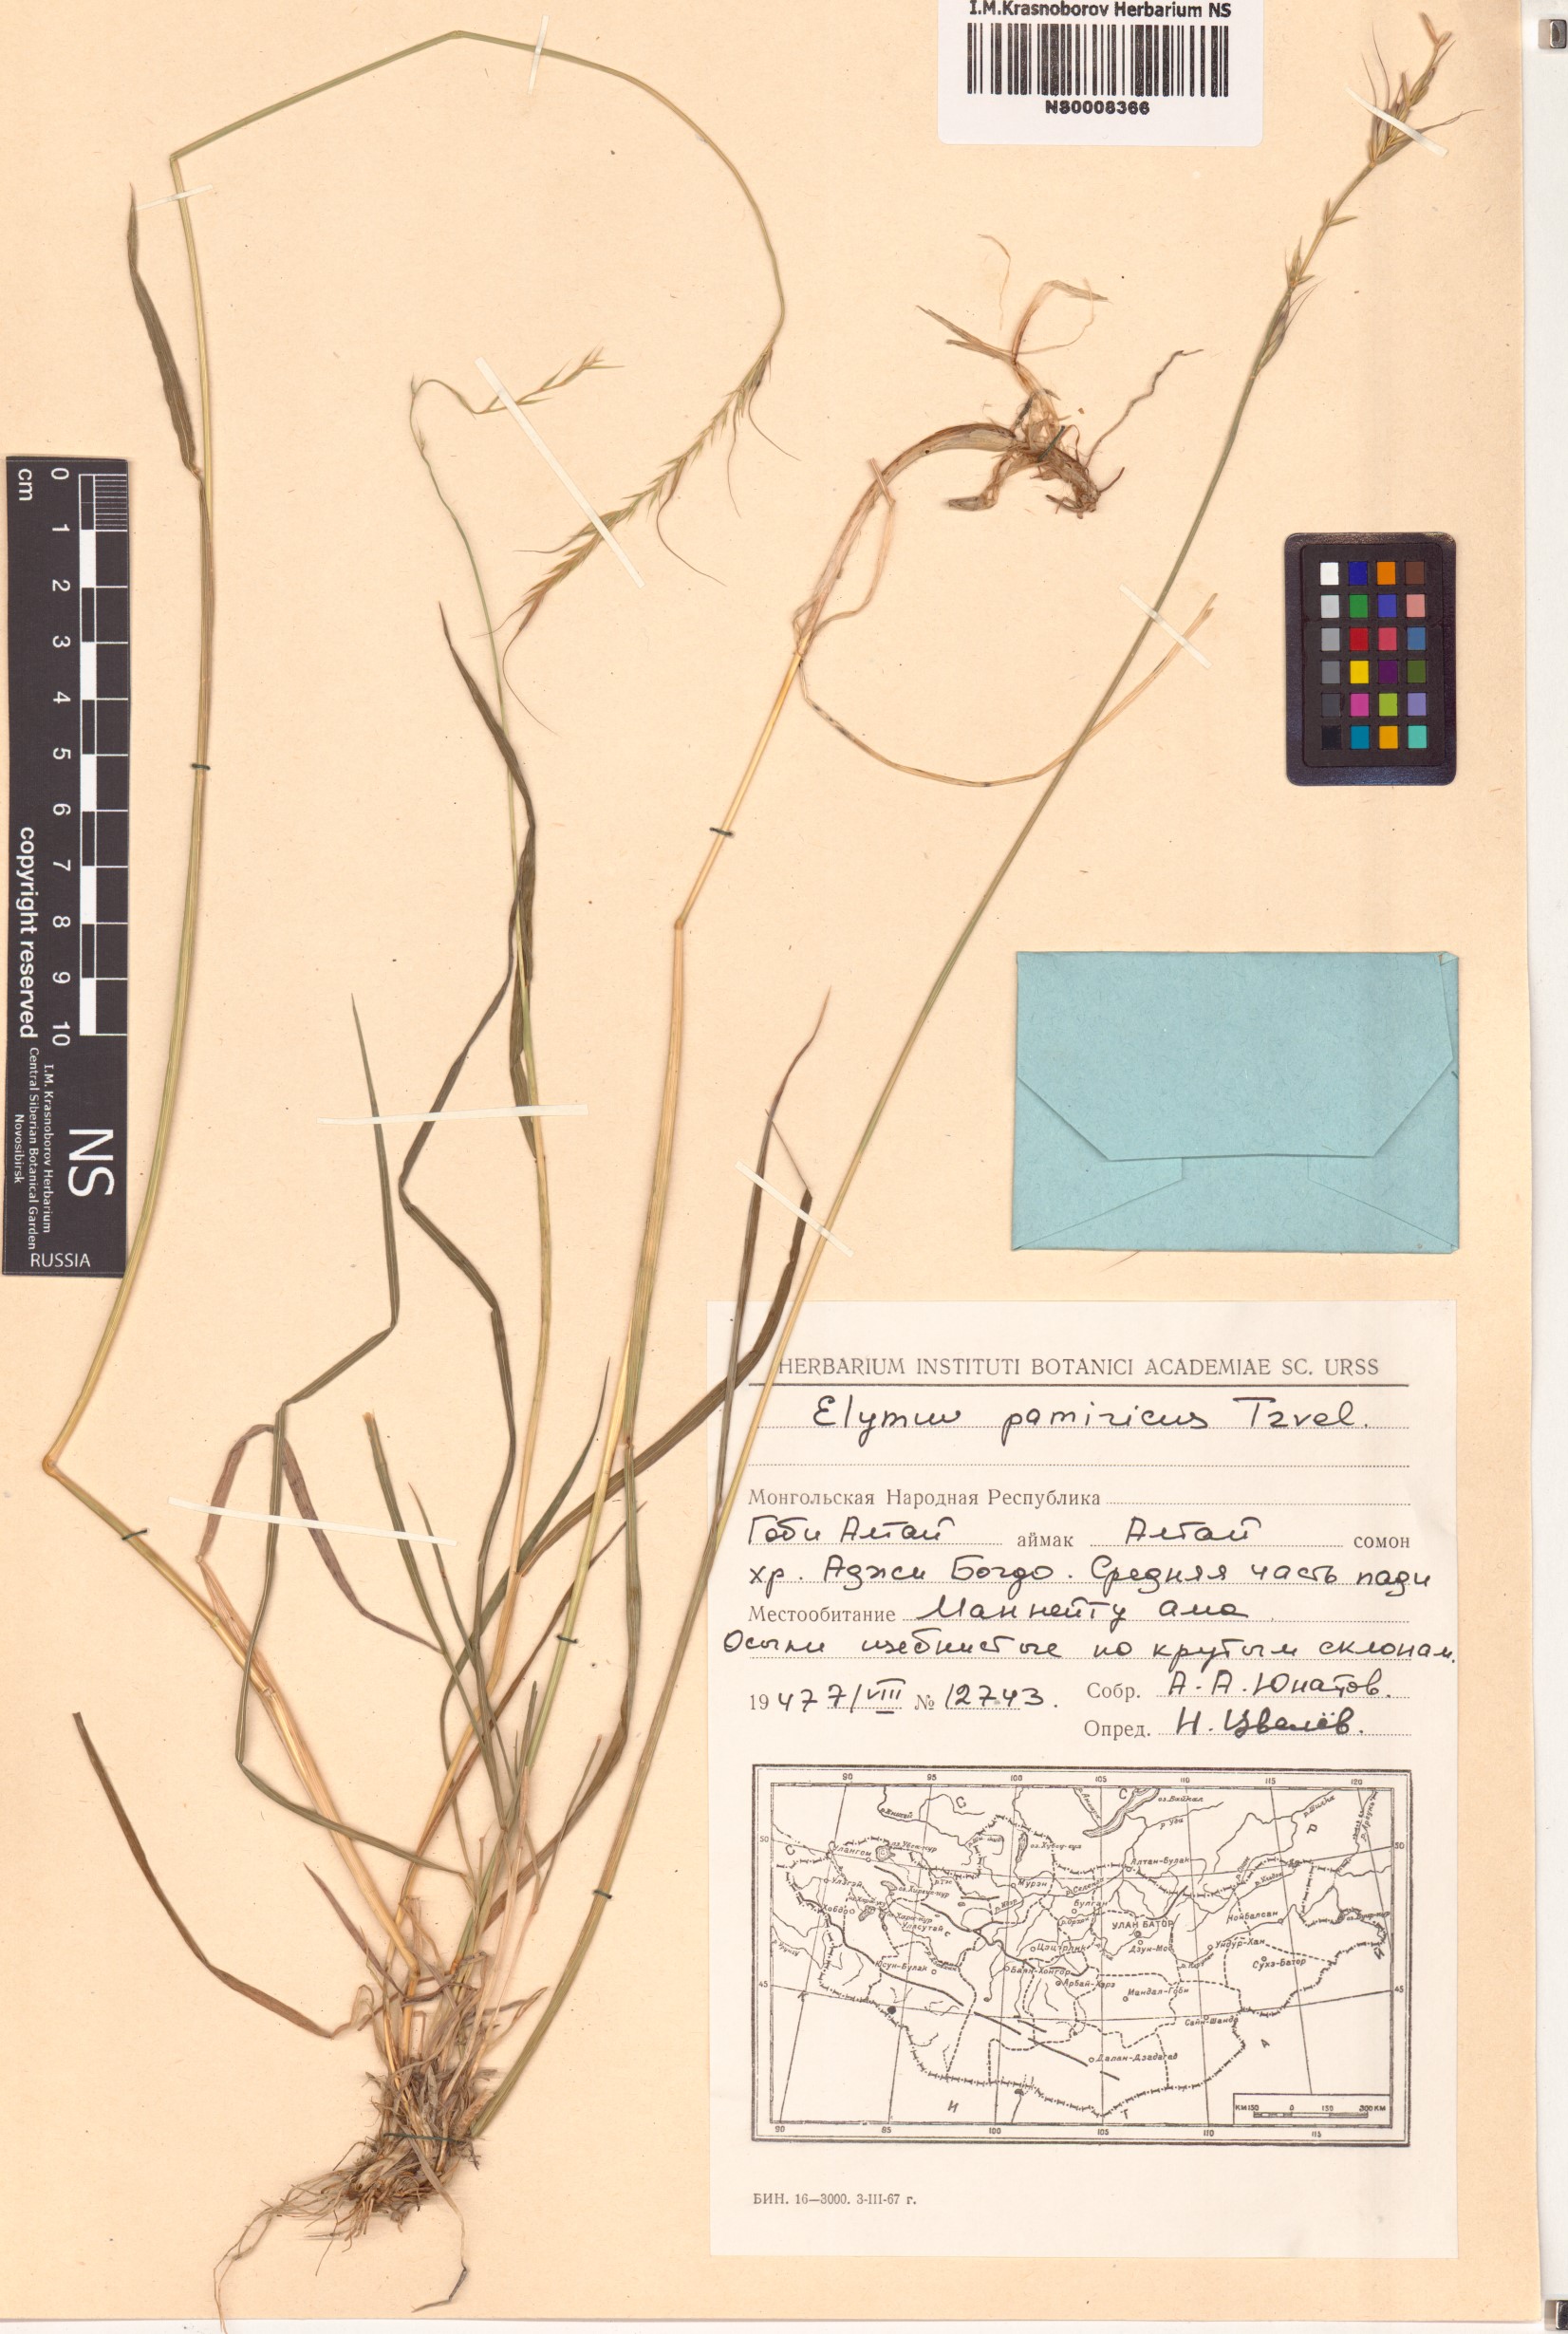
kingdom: Plantae
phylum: Tracheophyta
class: Liliopsida
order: Poales
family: Poaceae
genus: Campeiostachys
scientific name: Campeiostachys schrenkiana
